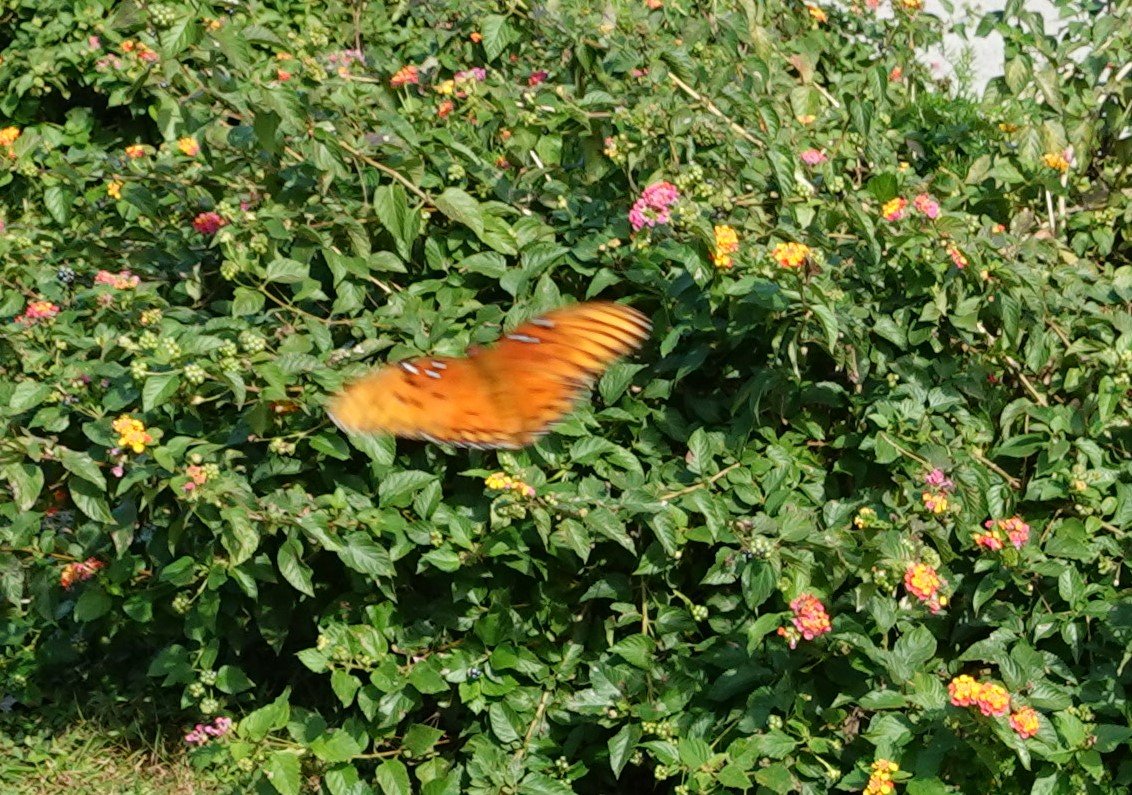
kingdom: Animalia
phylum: Arthropoda
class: Insecta
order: Lepidoptera
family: Nymphalidae
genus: Dione
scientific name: Dione vanillae
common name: Gulf Fritillary
